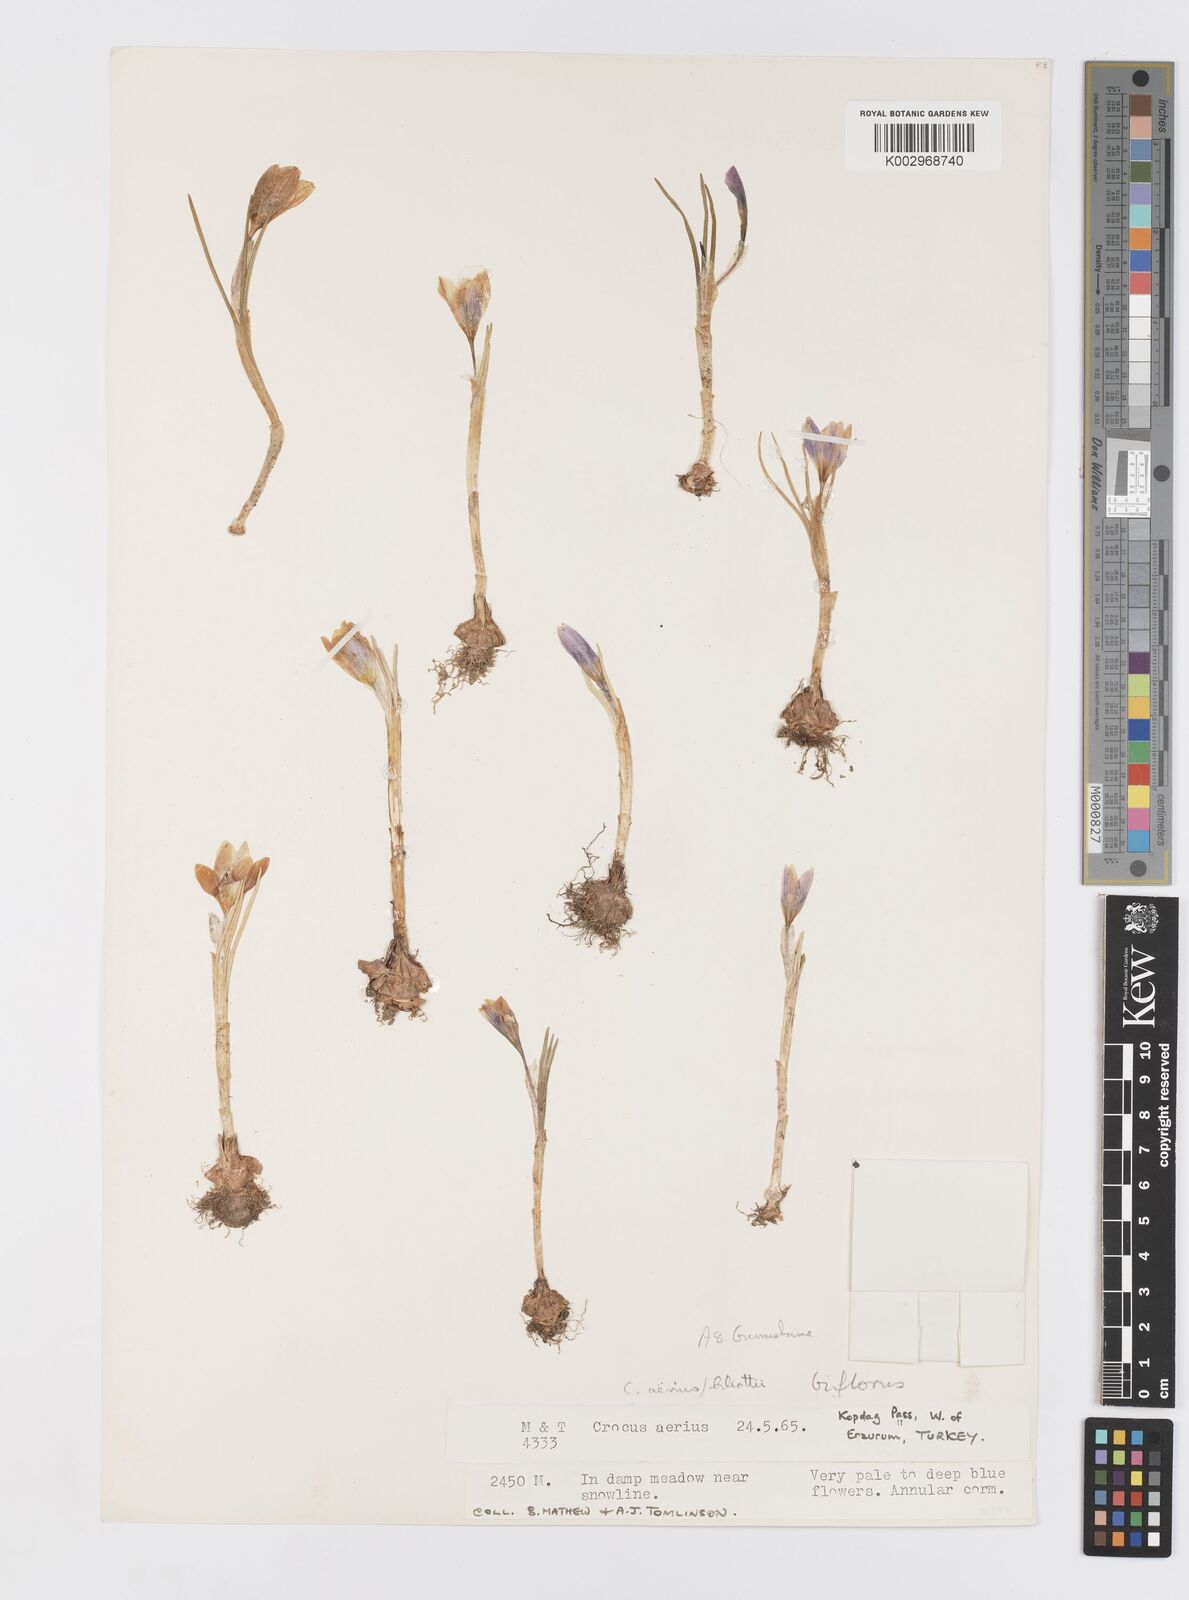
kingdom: Plantae
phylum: Tracheophyta
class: Liliopsida
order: Asparagales
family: Iridaceae
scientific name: Iridaceae
